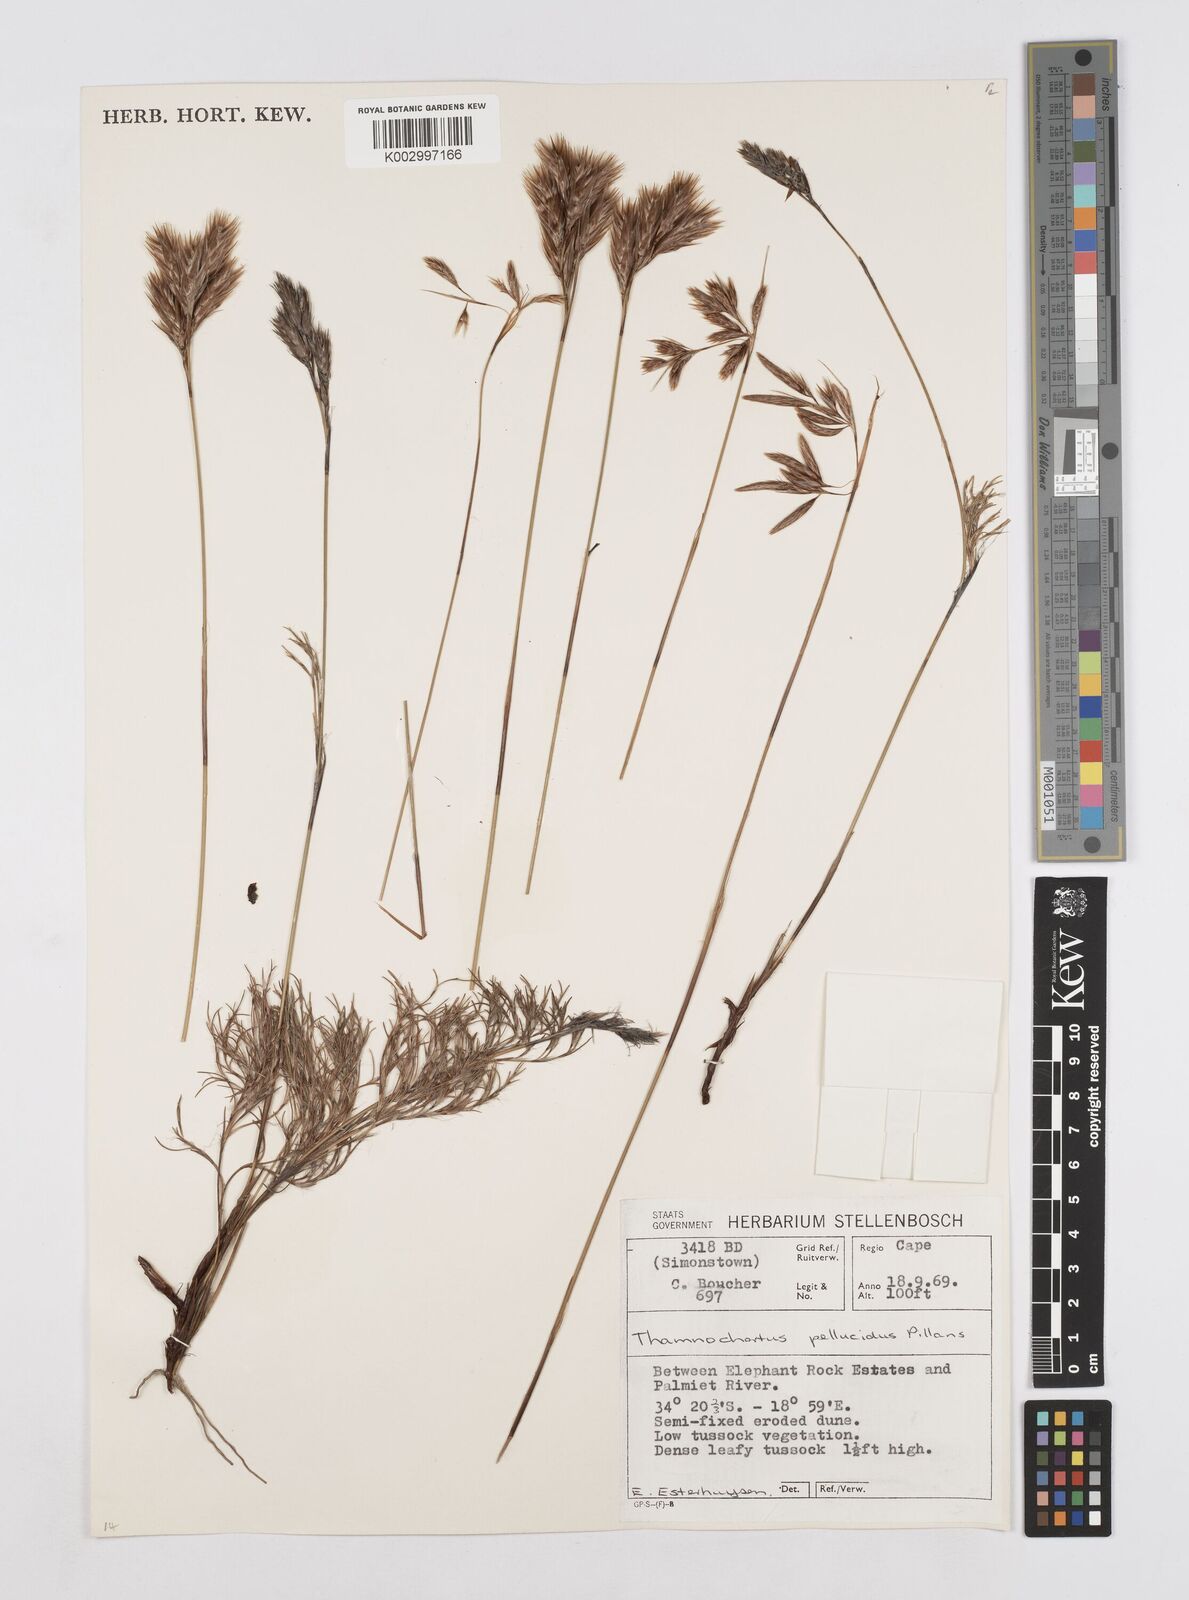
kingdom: Plantae
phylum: Tracheophyta
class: Liliopsida
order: Poales
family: Restionaceae
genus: Thamnochortus
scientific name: Thamnochortus pellucidus
